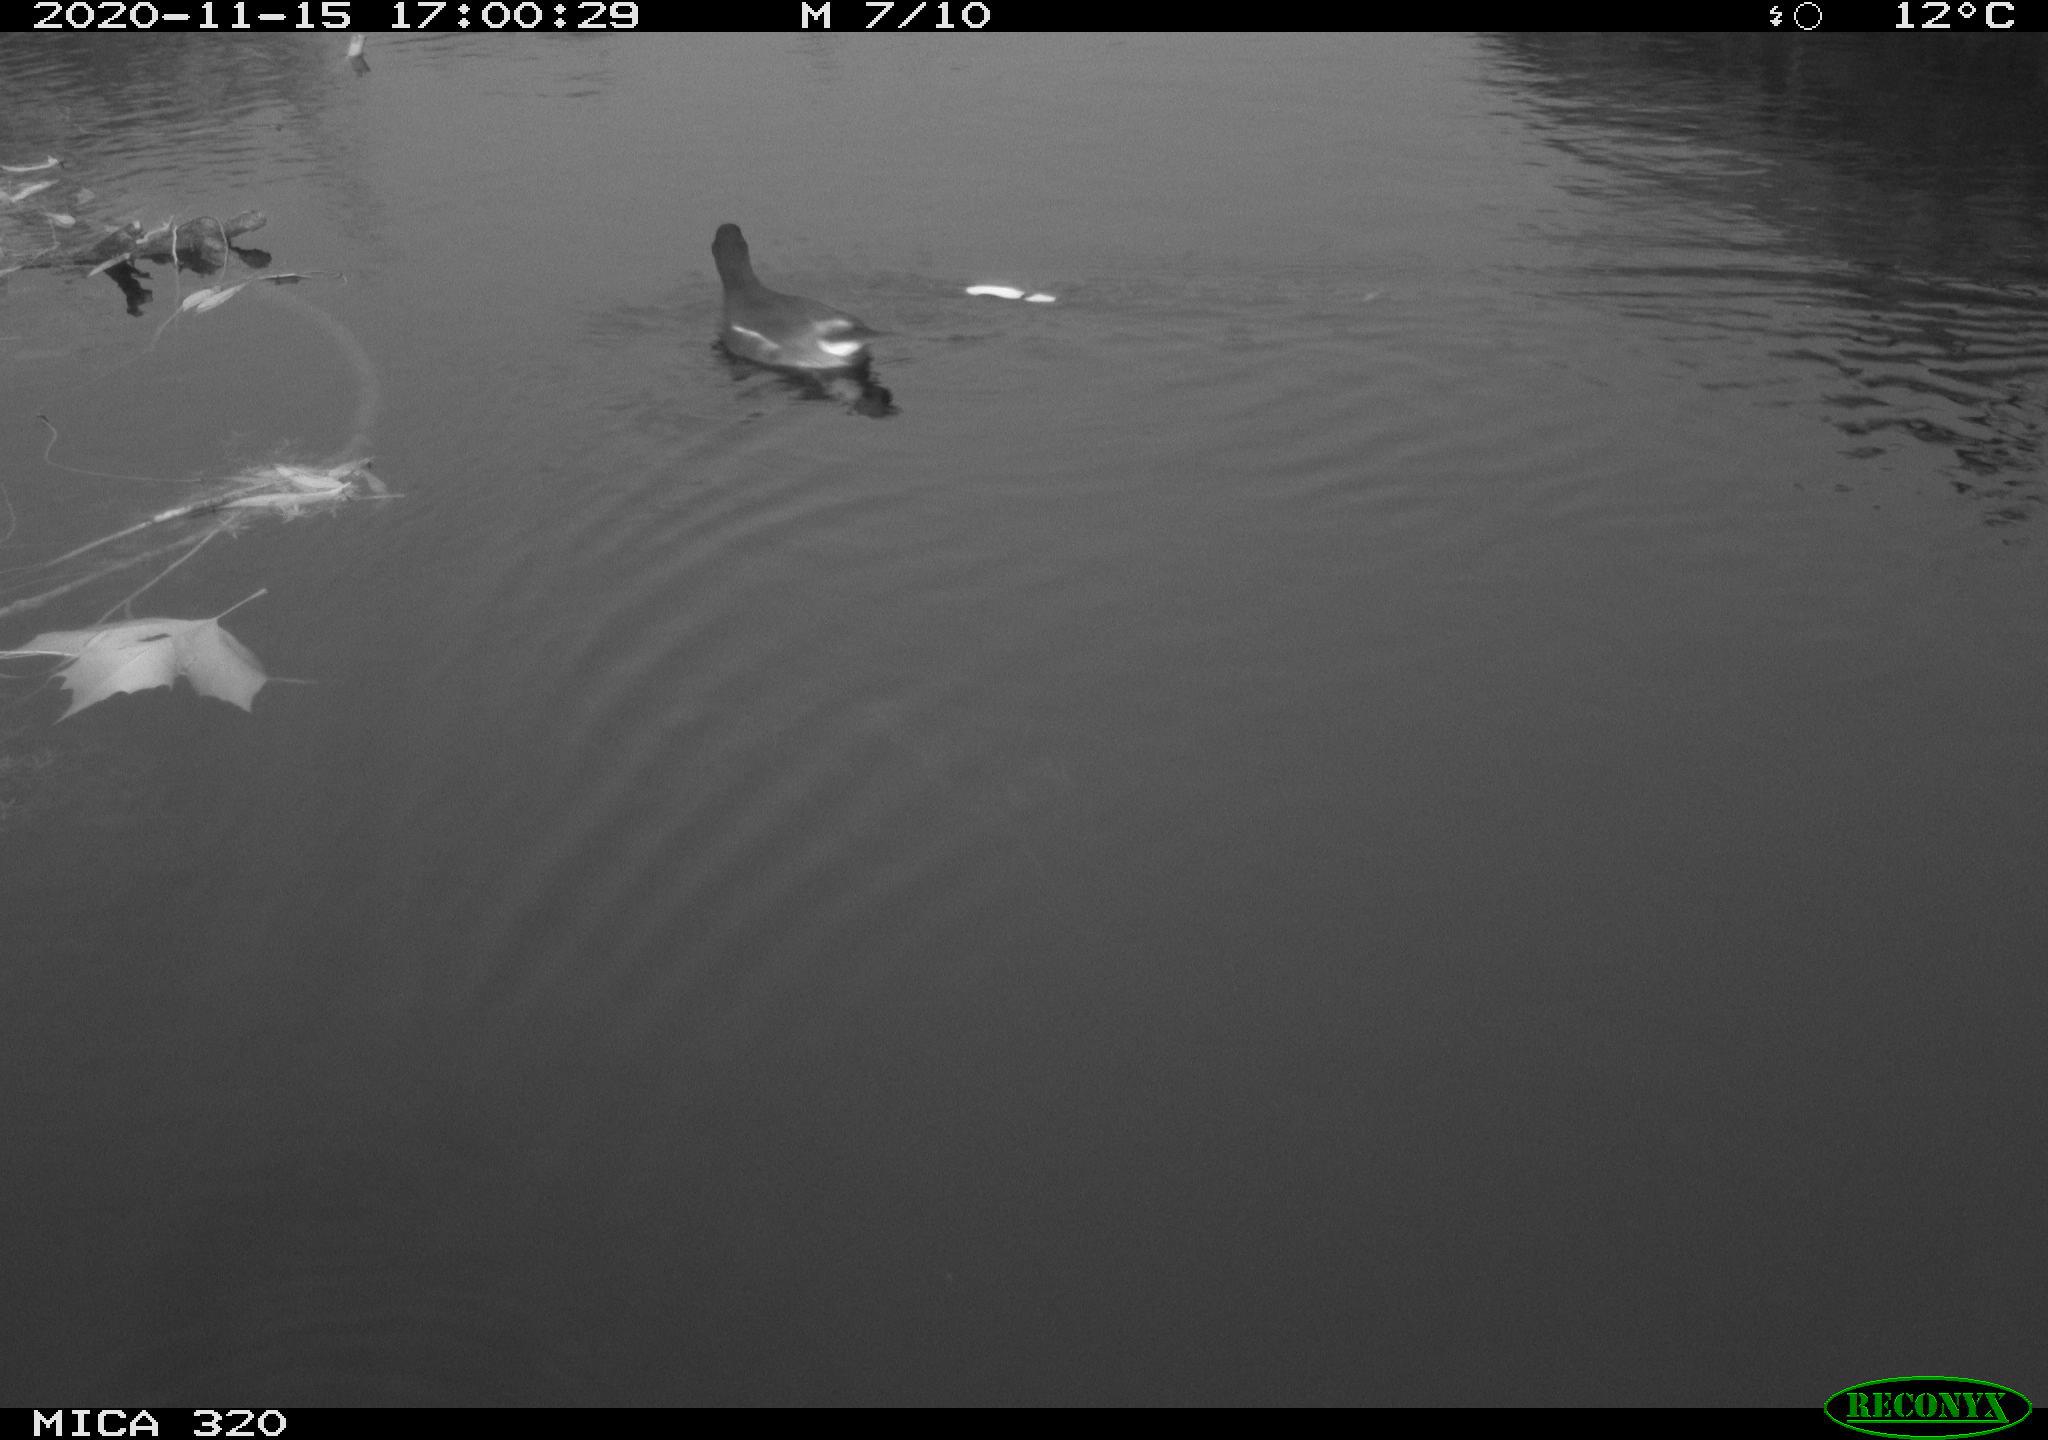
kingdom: Animalia
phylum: Chordata
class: Aves
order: Gruiformes
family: Rallidae
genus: Gallinula
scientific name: Gallinula chloropus
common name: Common moorhen
